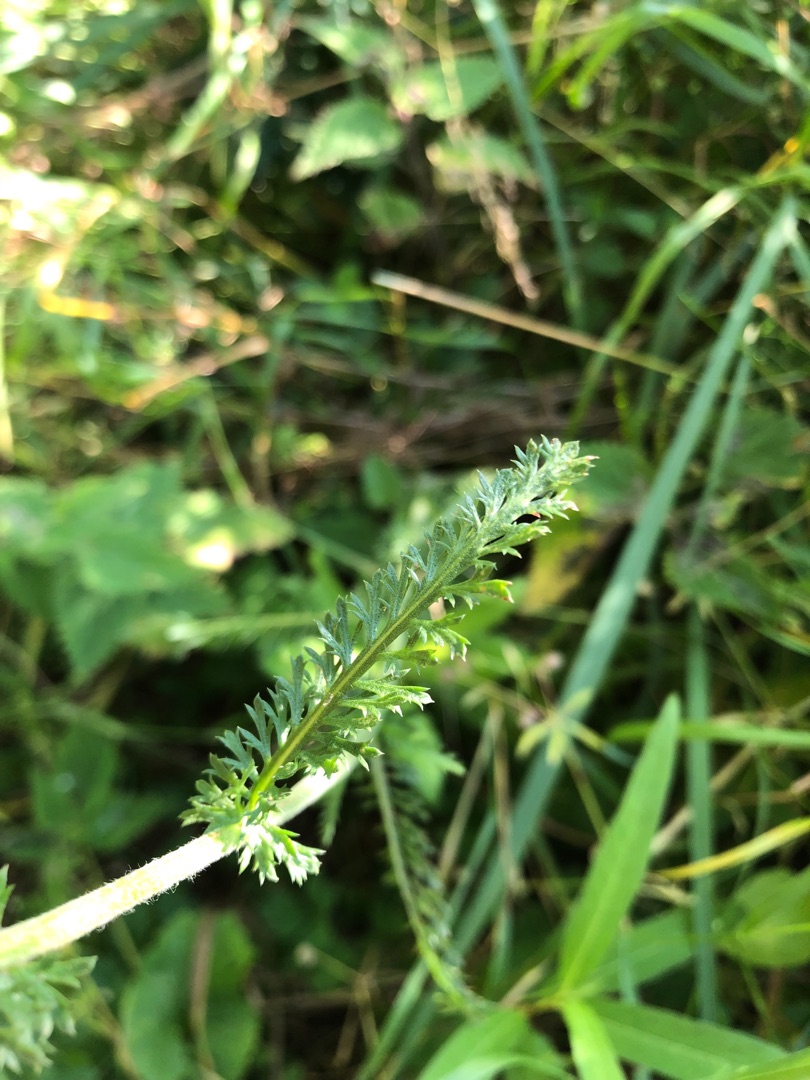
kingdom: Plantae
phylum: Tracheophyta
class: Magnoliopsida
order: Asterales
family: Asteraceae
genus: Achillea
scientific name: Achillea millefolium
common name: Almindelig røllike
